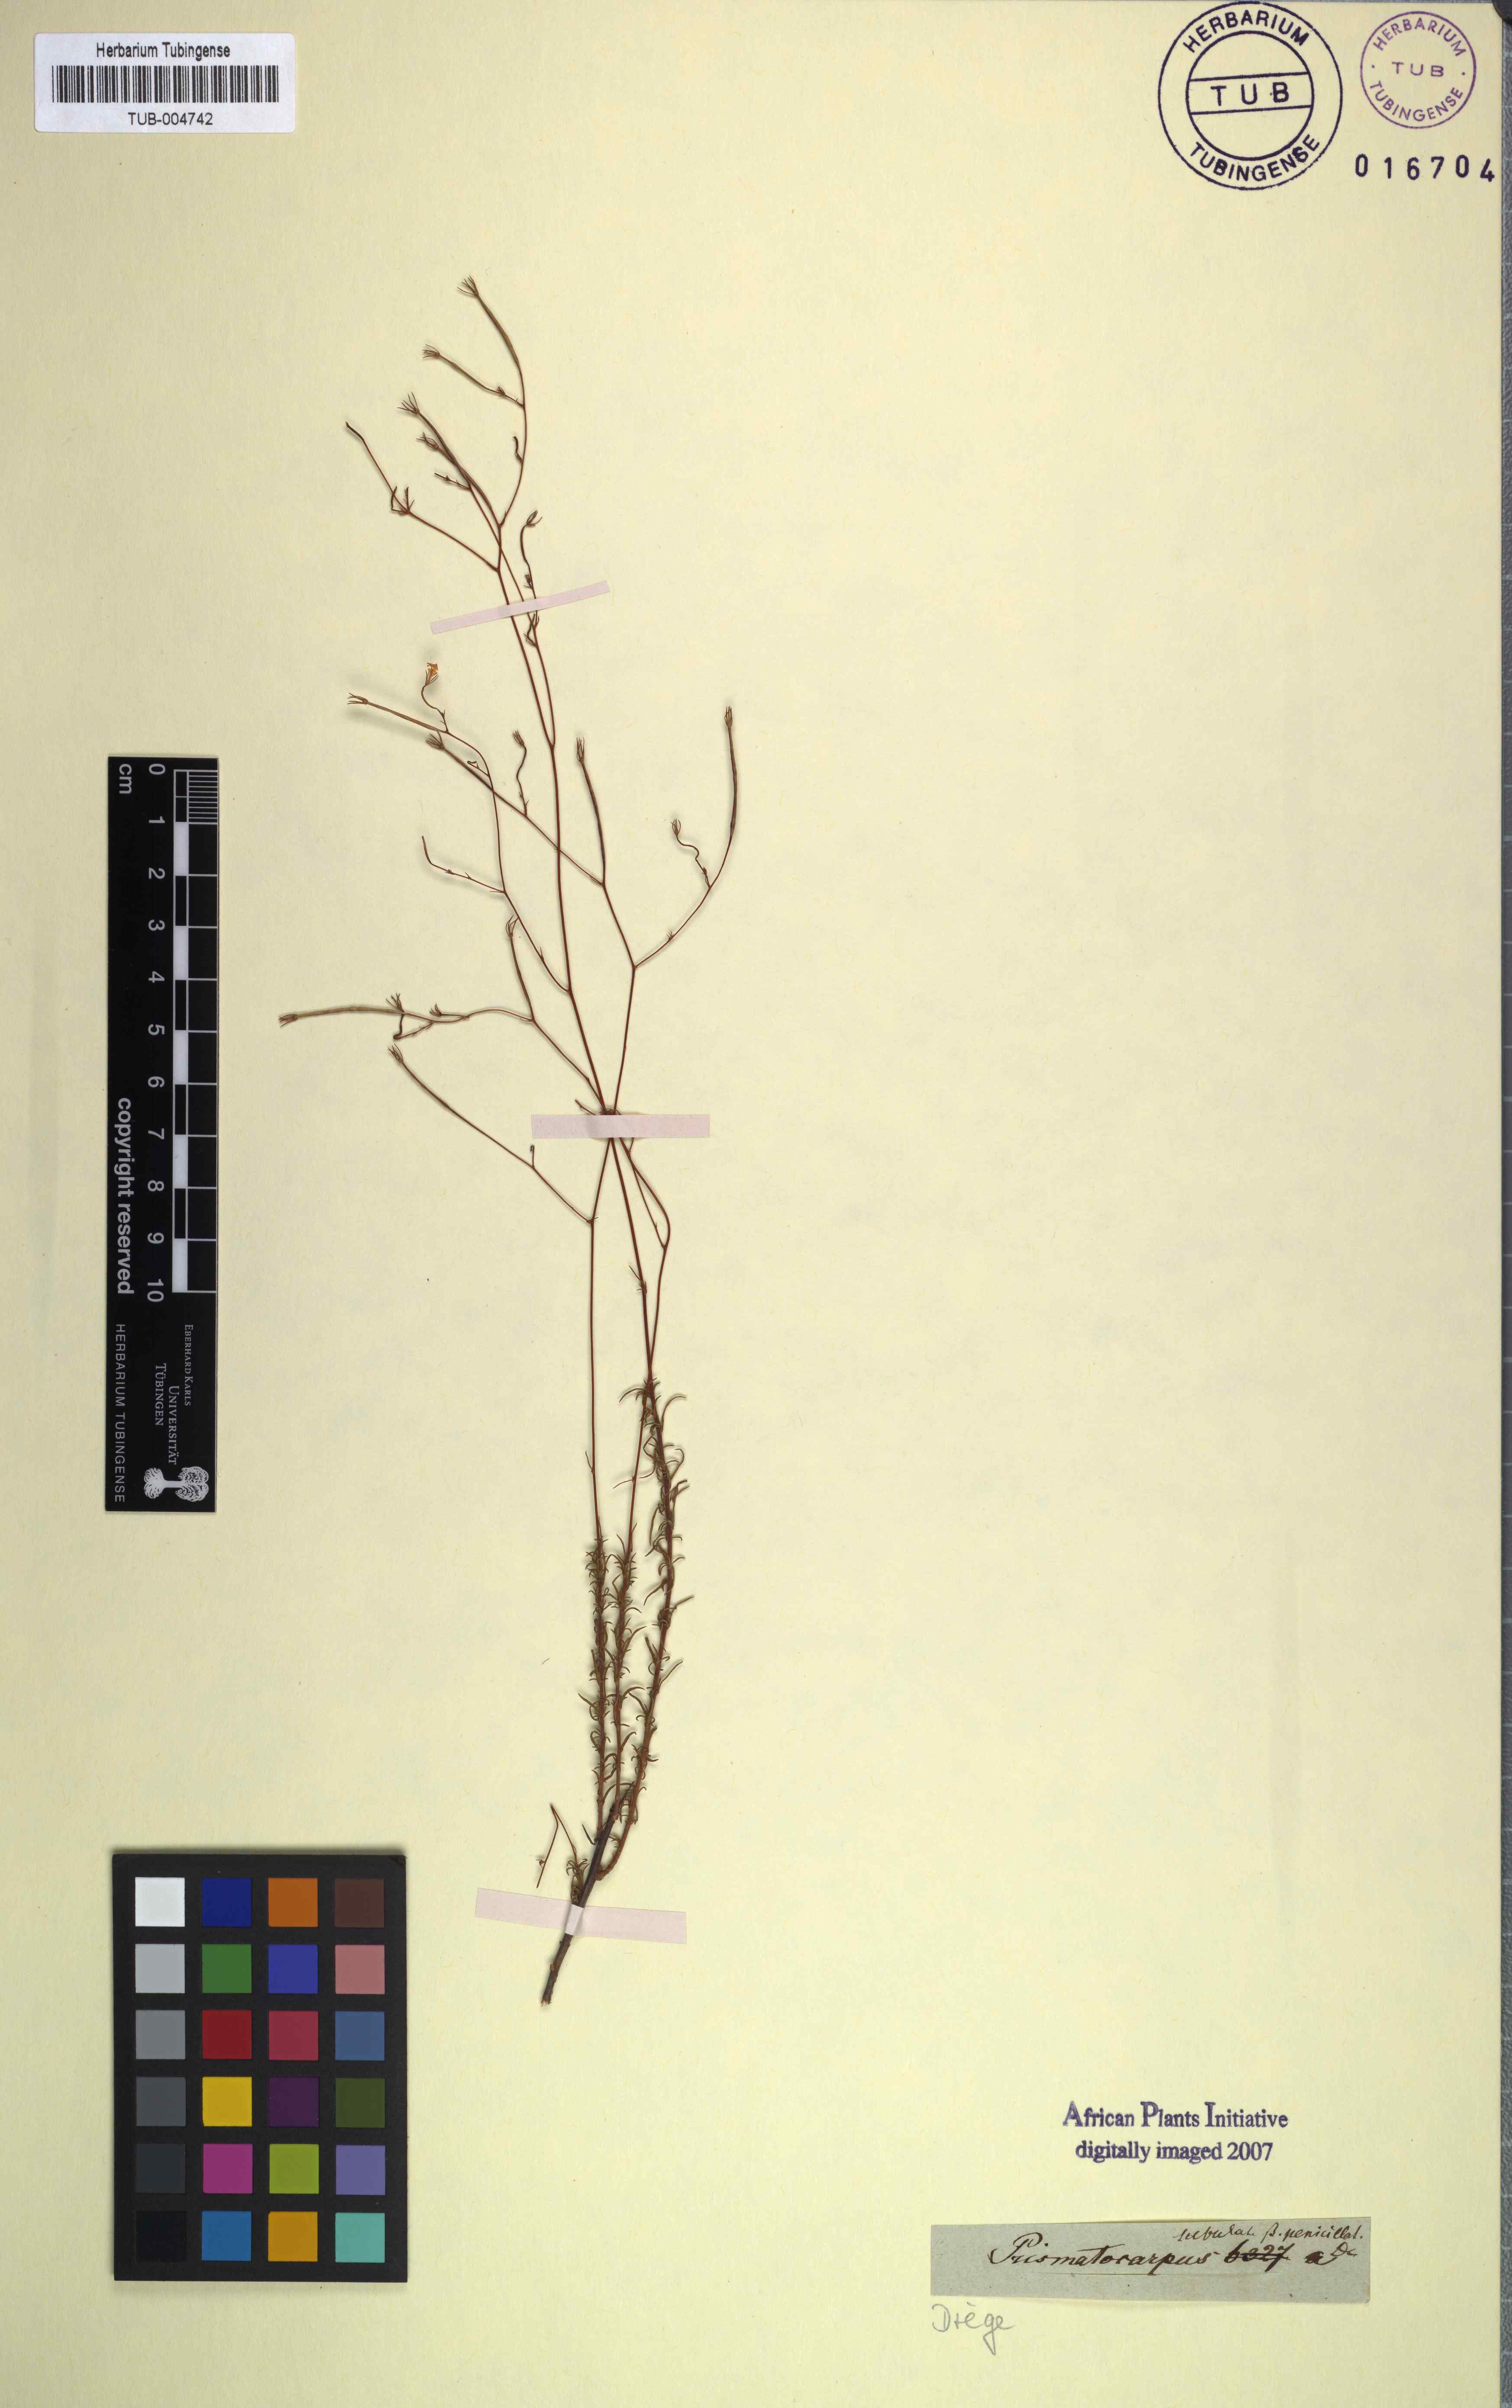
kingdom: Plantae
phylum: Tracheophyta
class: Magnoliopsida
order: Asterales
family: Campanulaceae
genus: Prismatocarpus
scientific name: Prismatocarpus fruticosus
